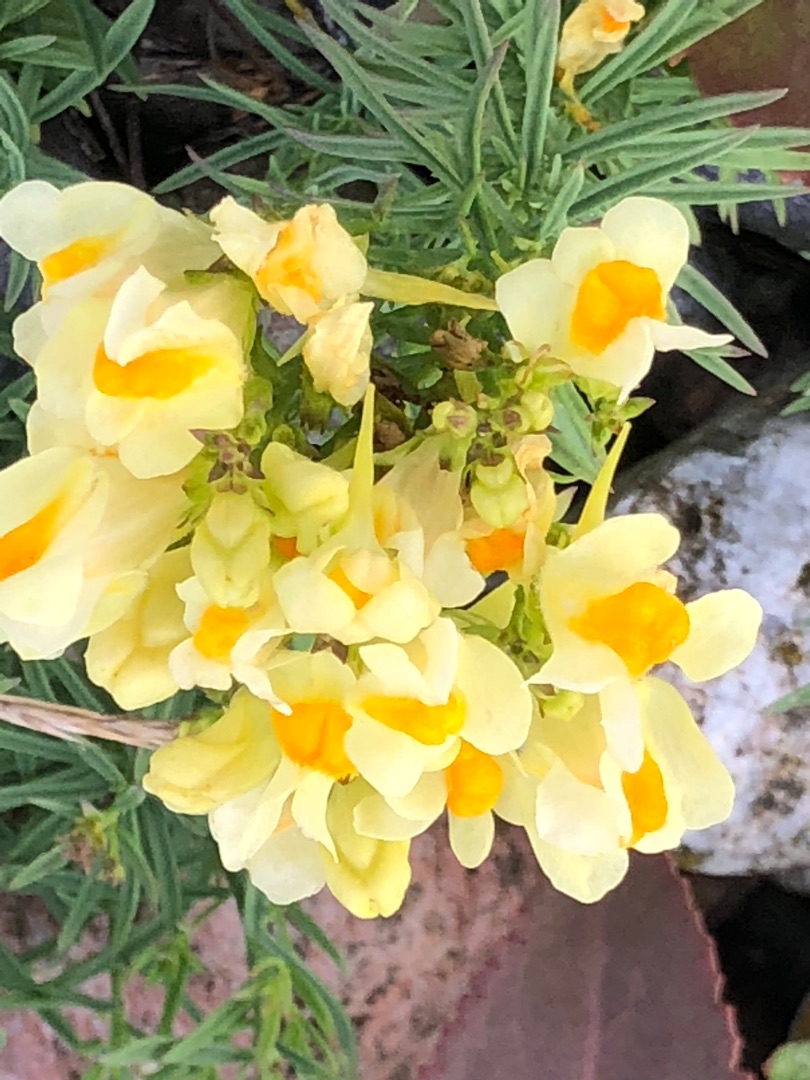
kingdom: Plantae
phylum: Tracheophyta
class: Magnoliopsida
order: Lamiales
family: Plantaginaceae
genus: Linaria
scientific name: Linaria vulgaris
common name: Almindelig torskemund
